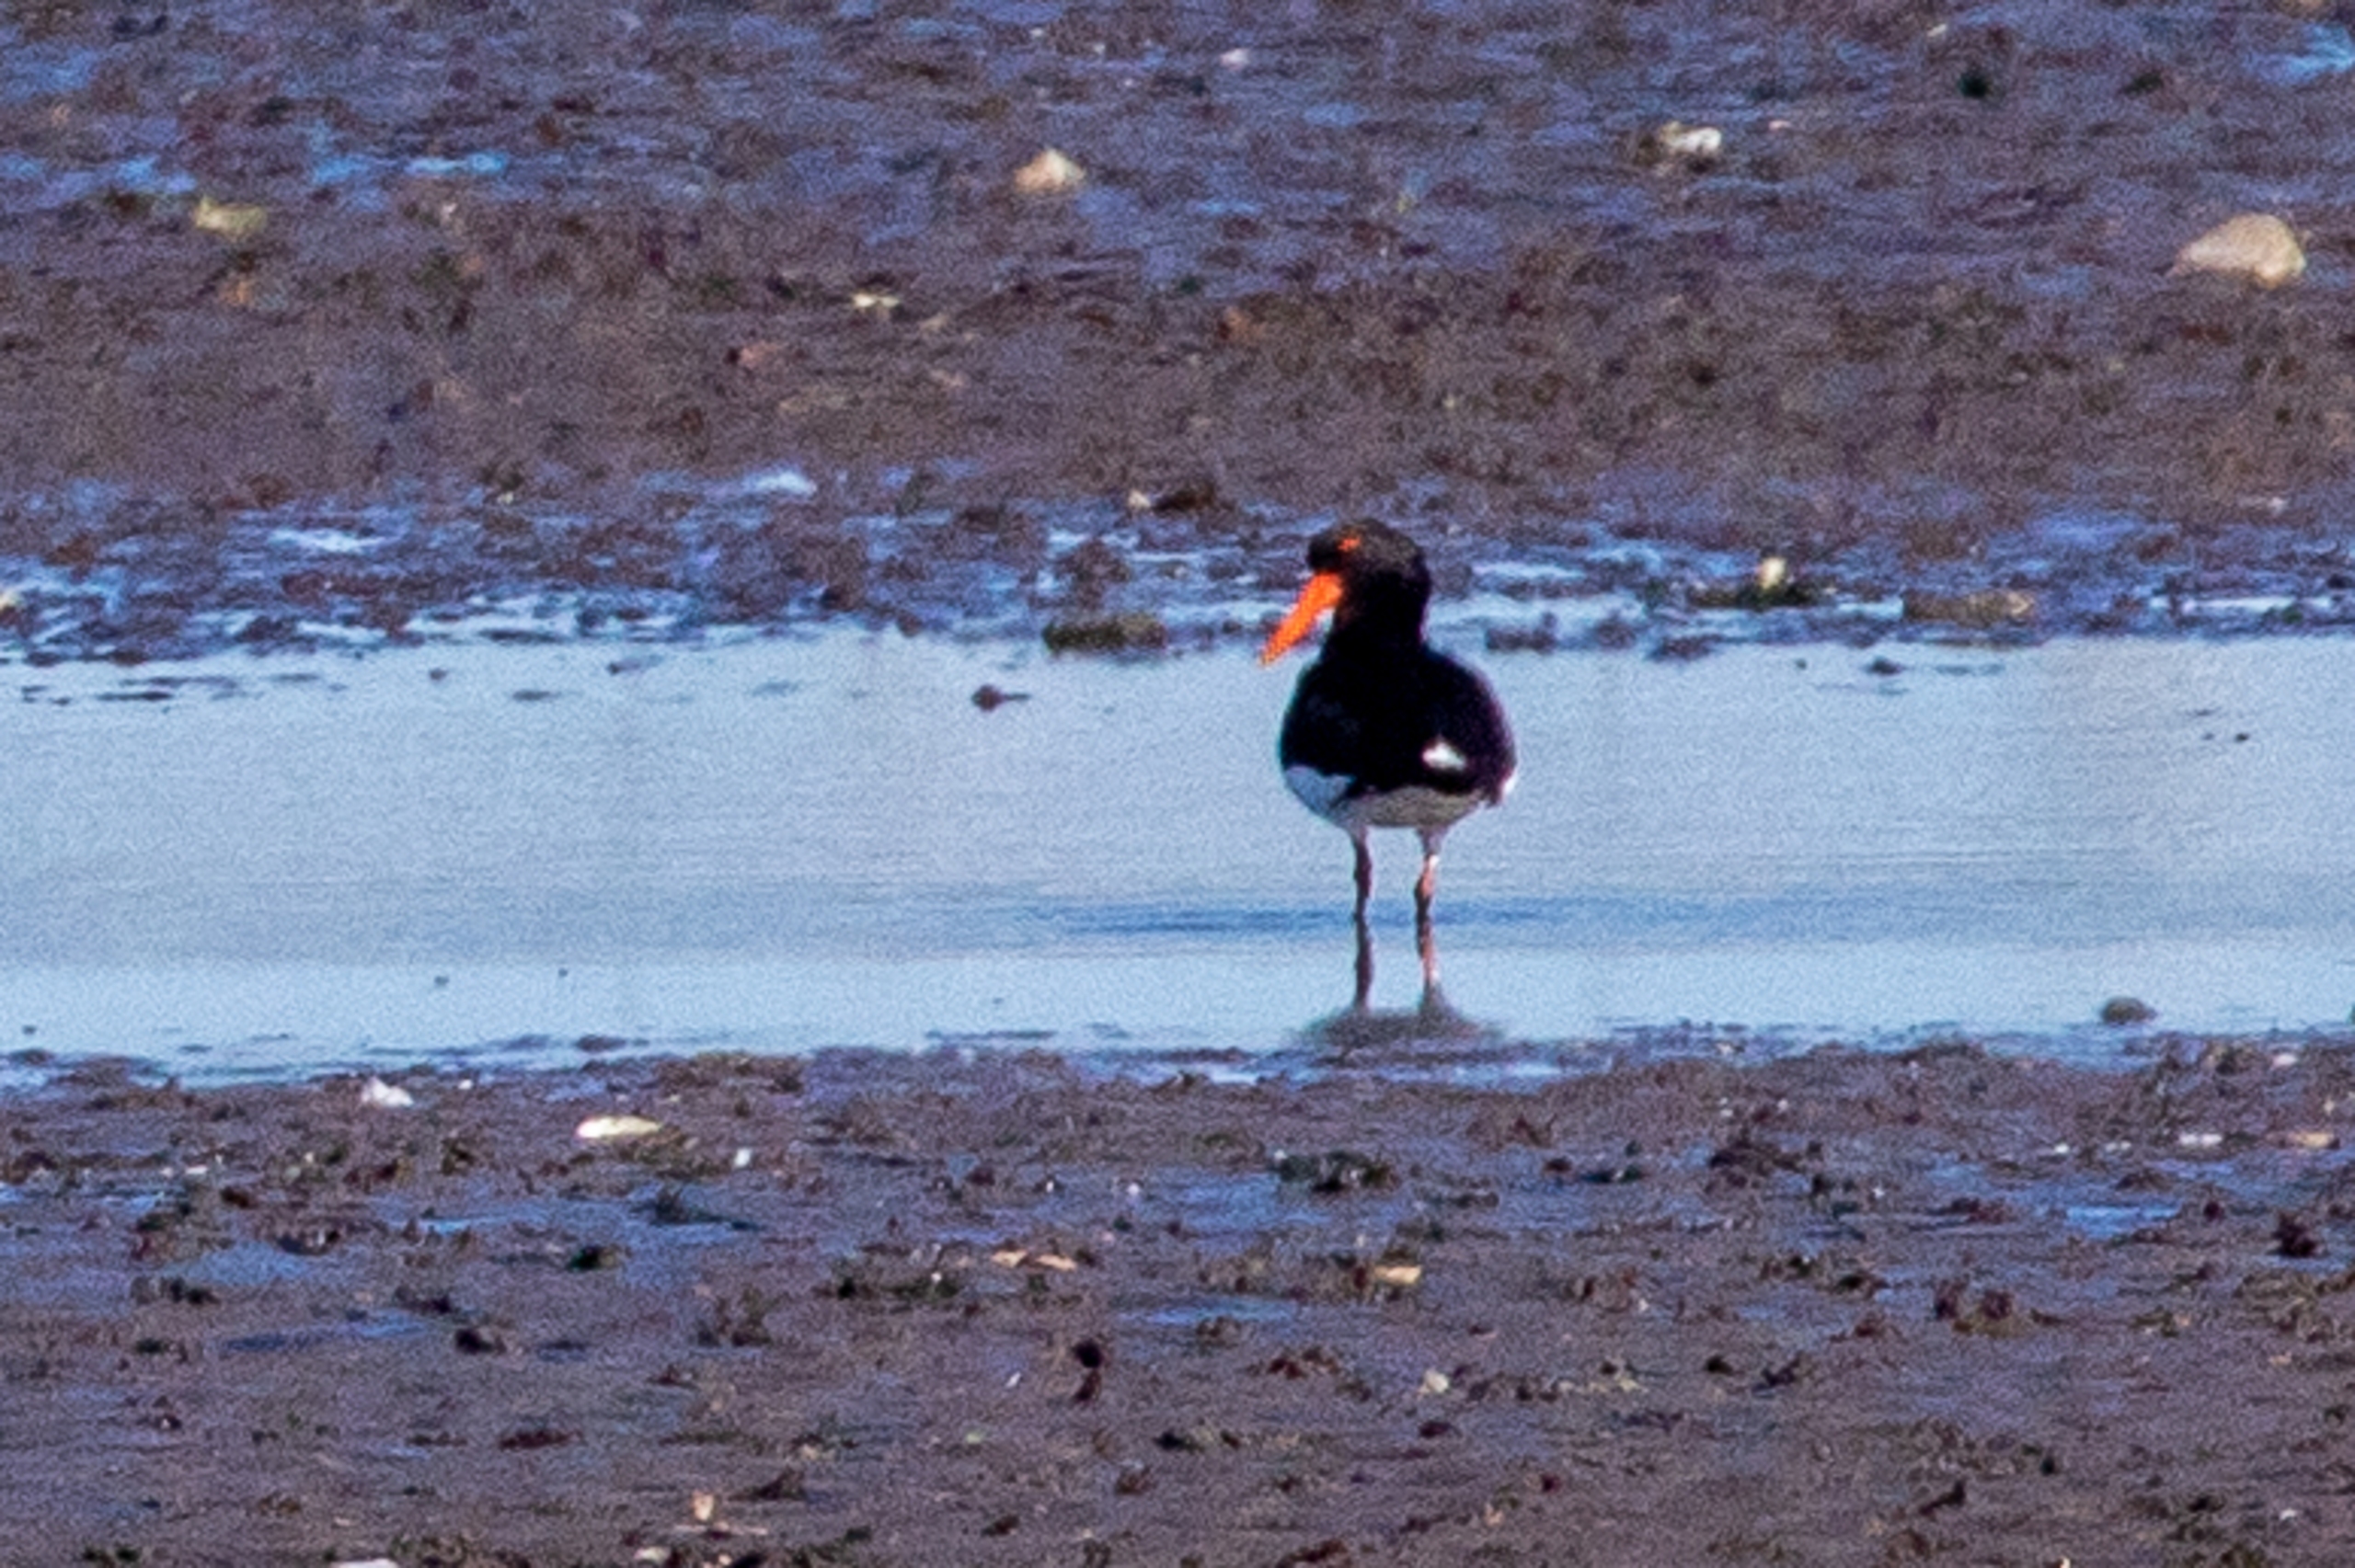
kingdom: Animalia
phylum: Chordata
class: Aves
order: Charadriiformes
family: Haematopodidae
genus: Haematopus
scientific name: Haematopus ostralegus
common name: Strandskade
